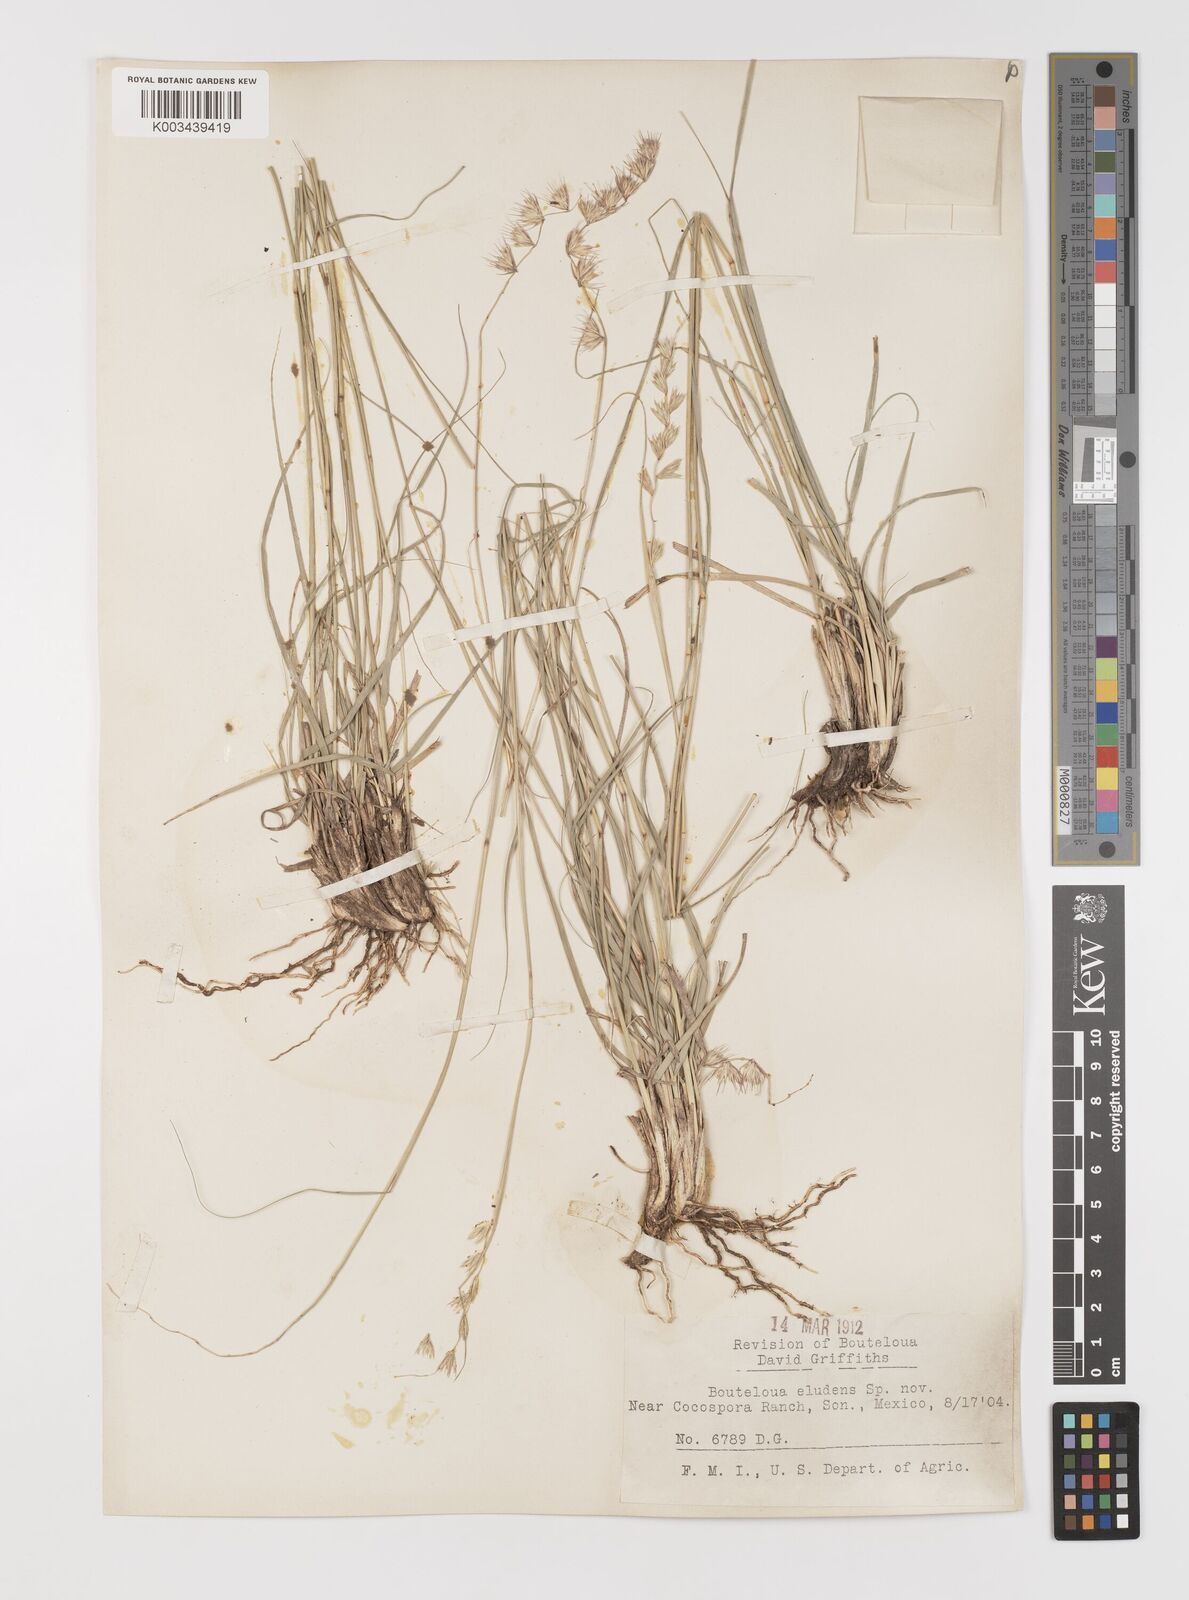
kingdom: Plantae
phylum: Tracheophyta
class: Liliopsida
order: Poales
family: Poaceae
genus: Bouteloua
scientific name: Bouteloua eludens
